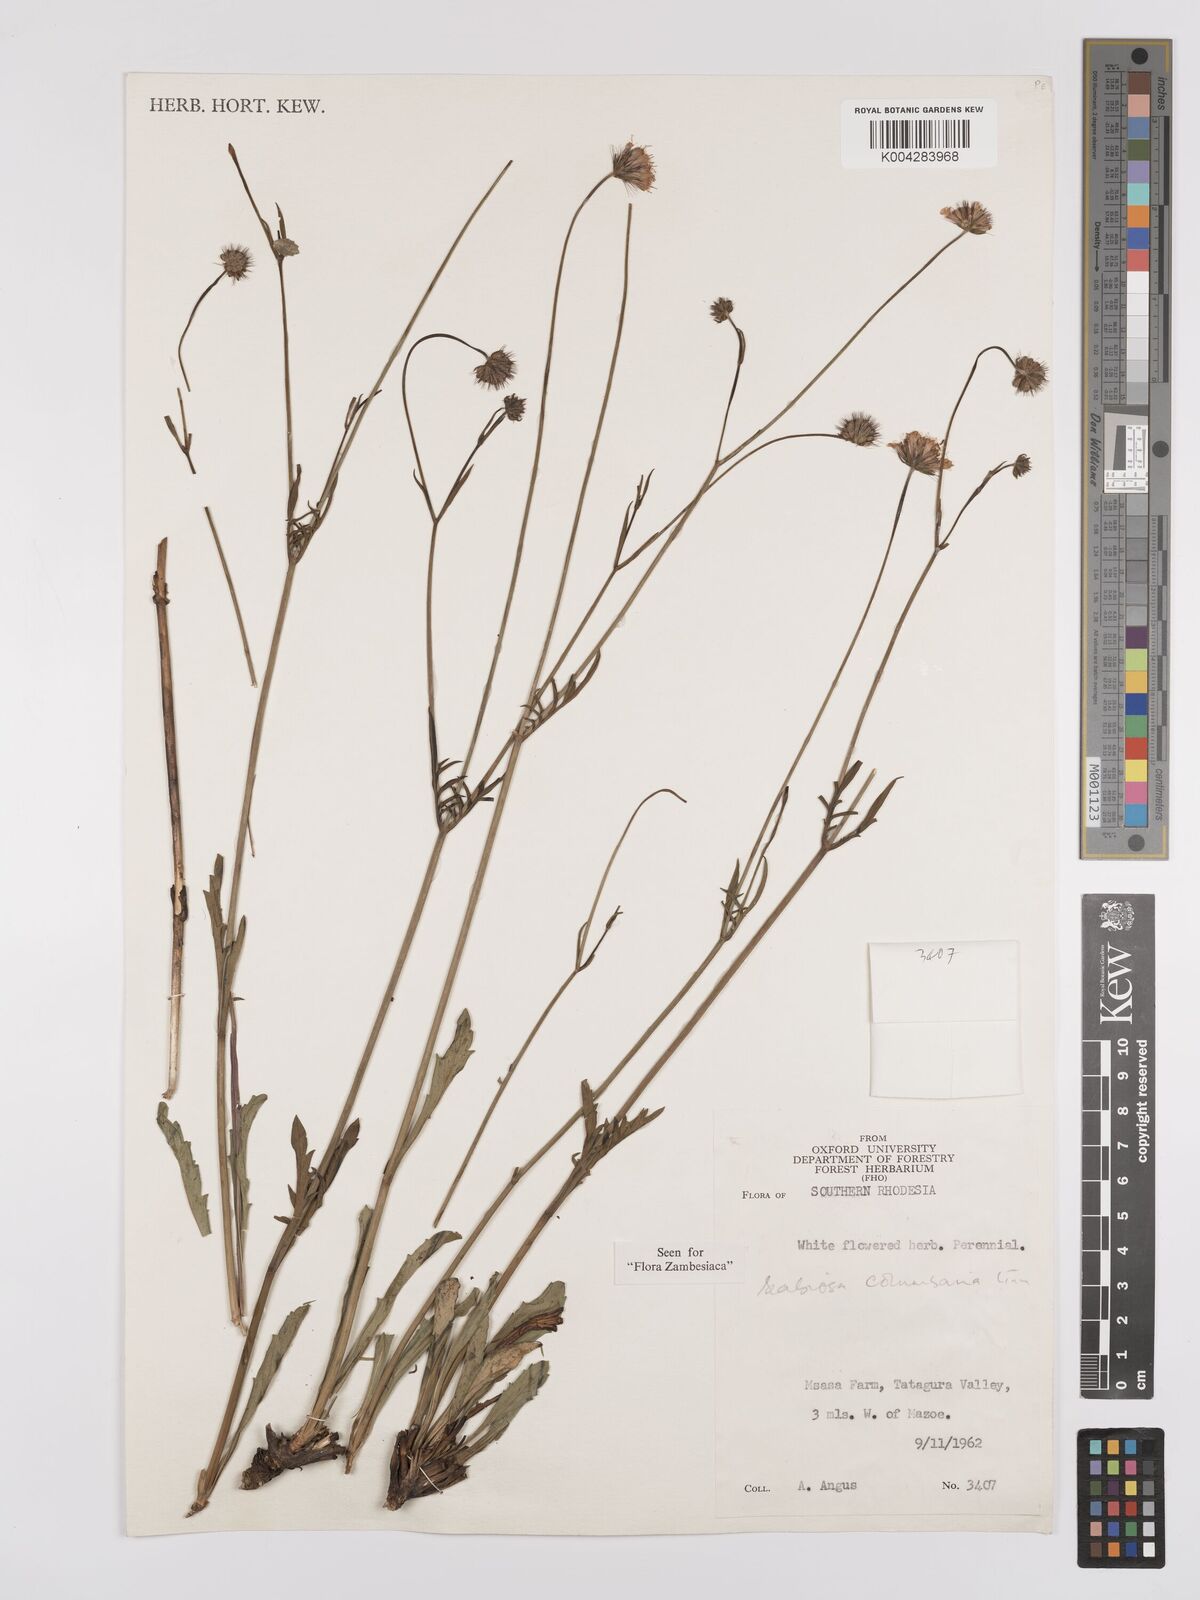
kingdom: Plantae
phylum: Tracheophyta
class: Magnoliopsida
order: Dipsacales
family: Caprifoliaceae
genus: Scabiosa
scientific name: Scabiosa columbaria
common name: Small scabious
